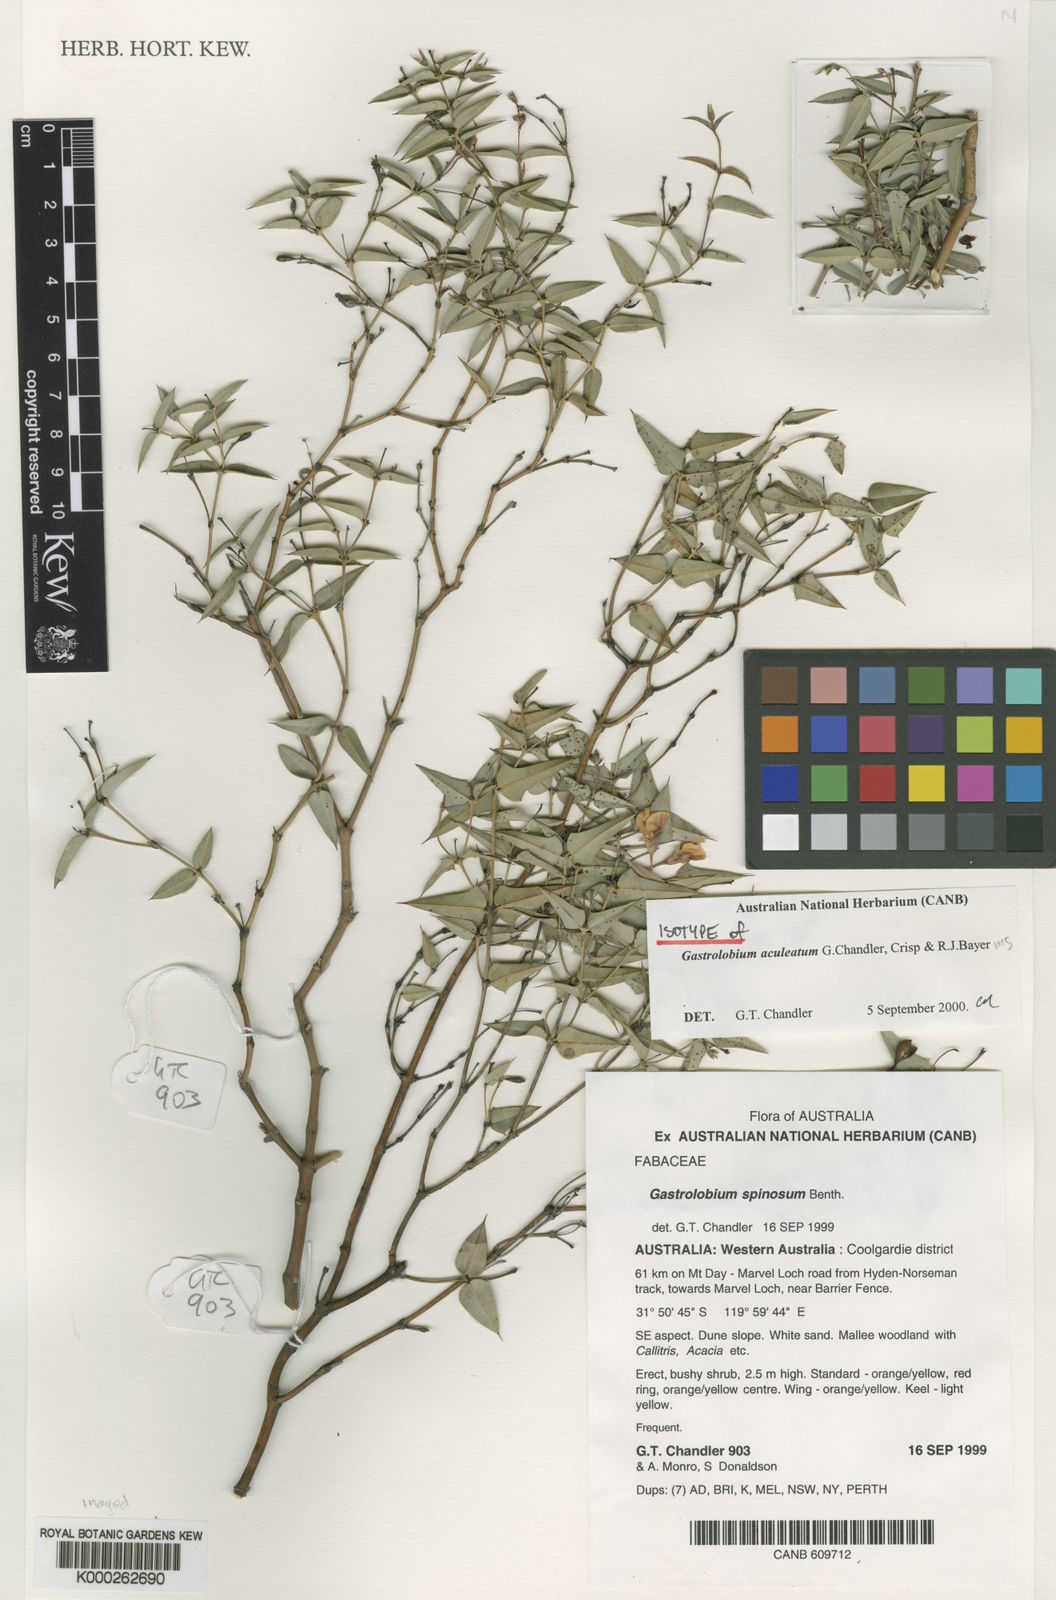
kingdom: Plantae
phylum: Tracheophyta
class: Magnoliopsida
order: Fabales
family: Fabaceae
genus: Gastrolobium
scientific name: Gastrolobium
